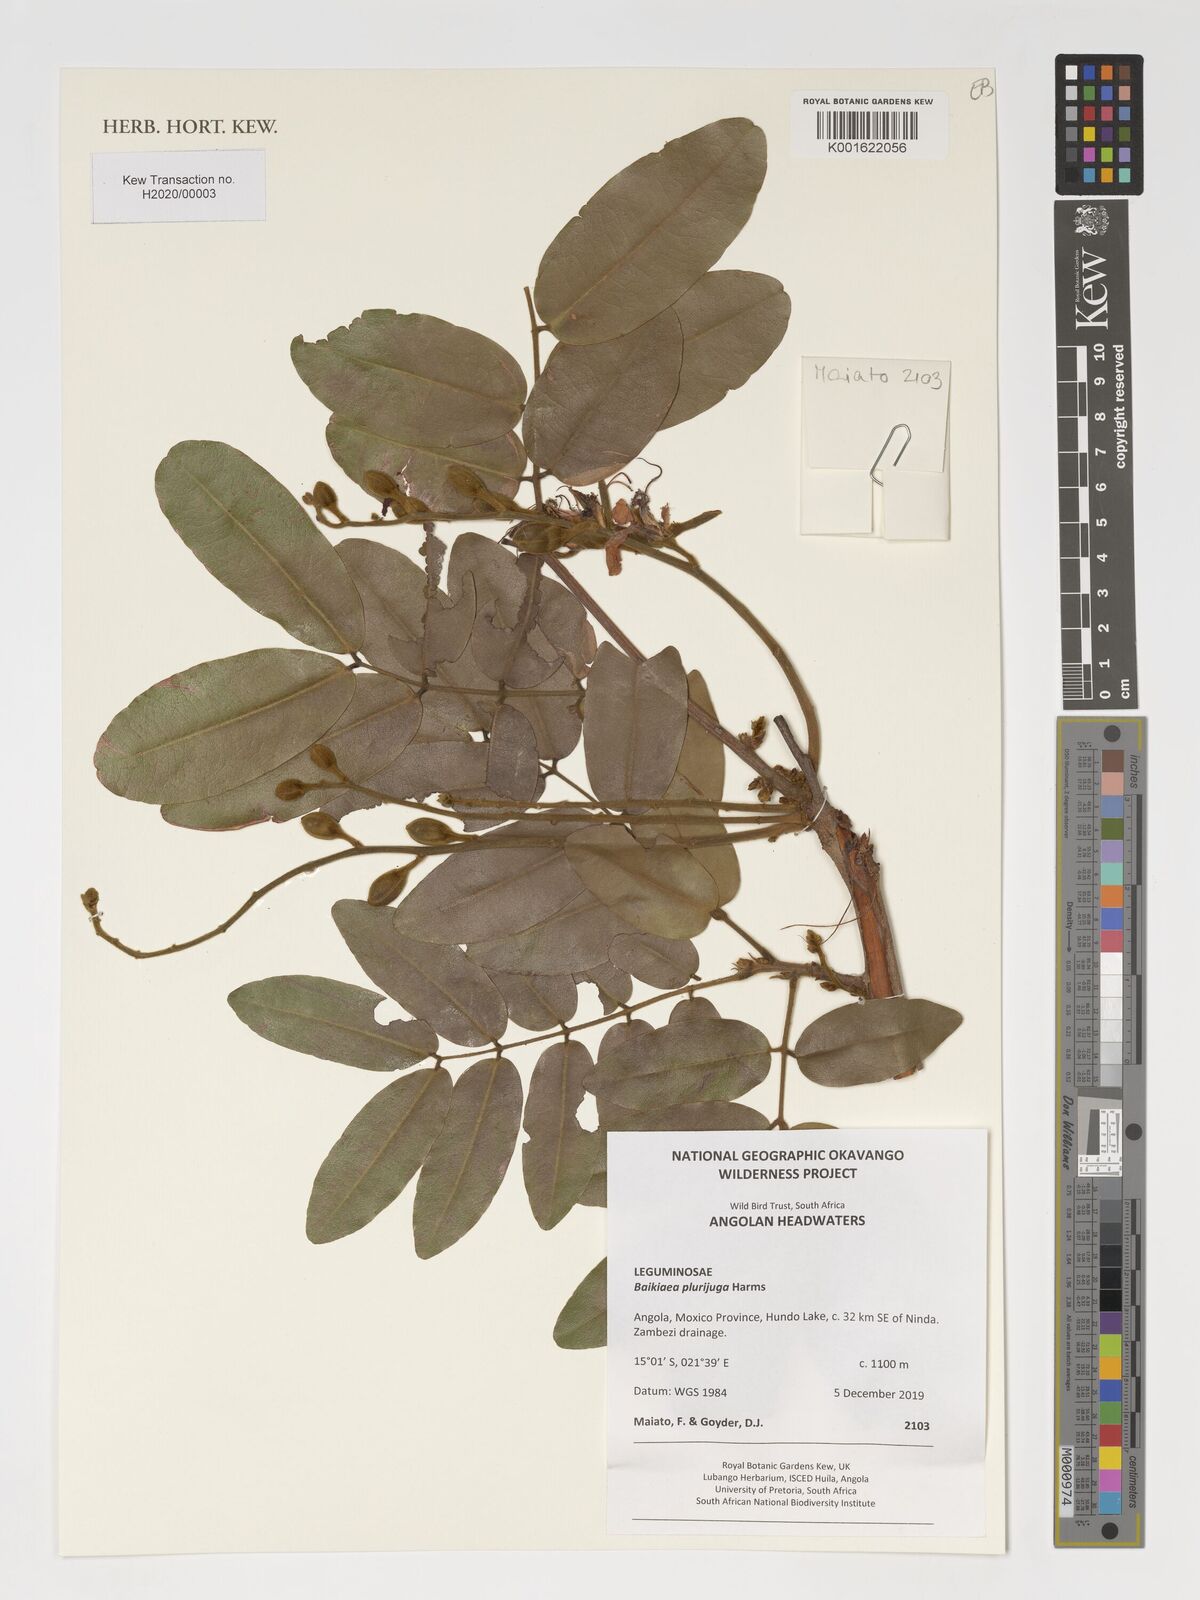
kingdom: Plantae
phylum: Tracheophyta
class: Magnoliopsida
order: Fabales
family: Fabaceae
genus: Baikiaea
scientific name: Baikiaea plurijuga
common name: Rhodesian-teak
